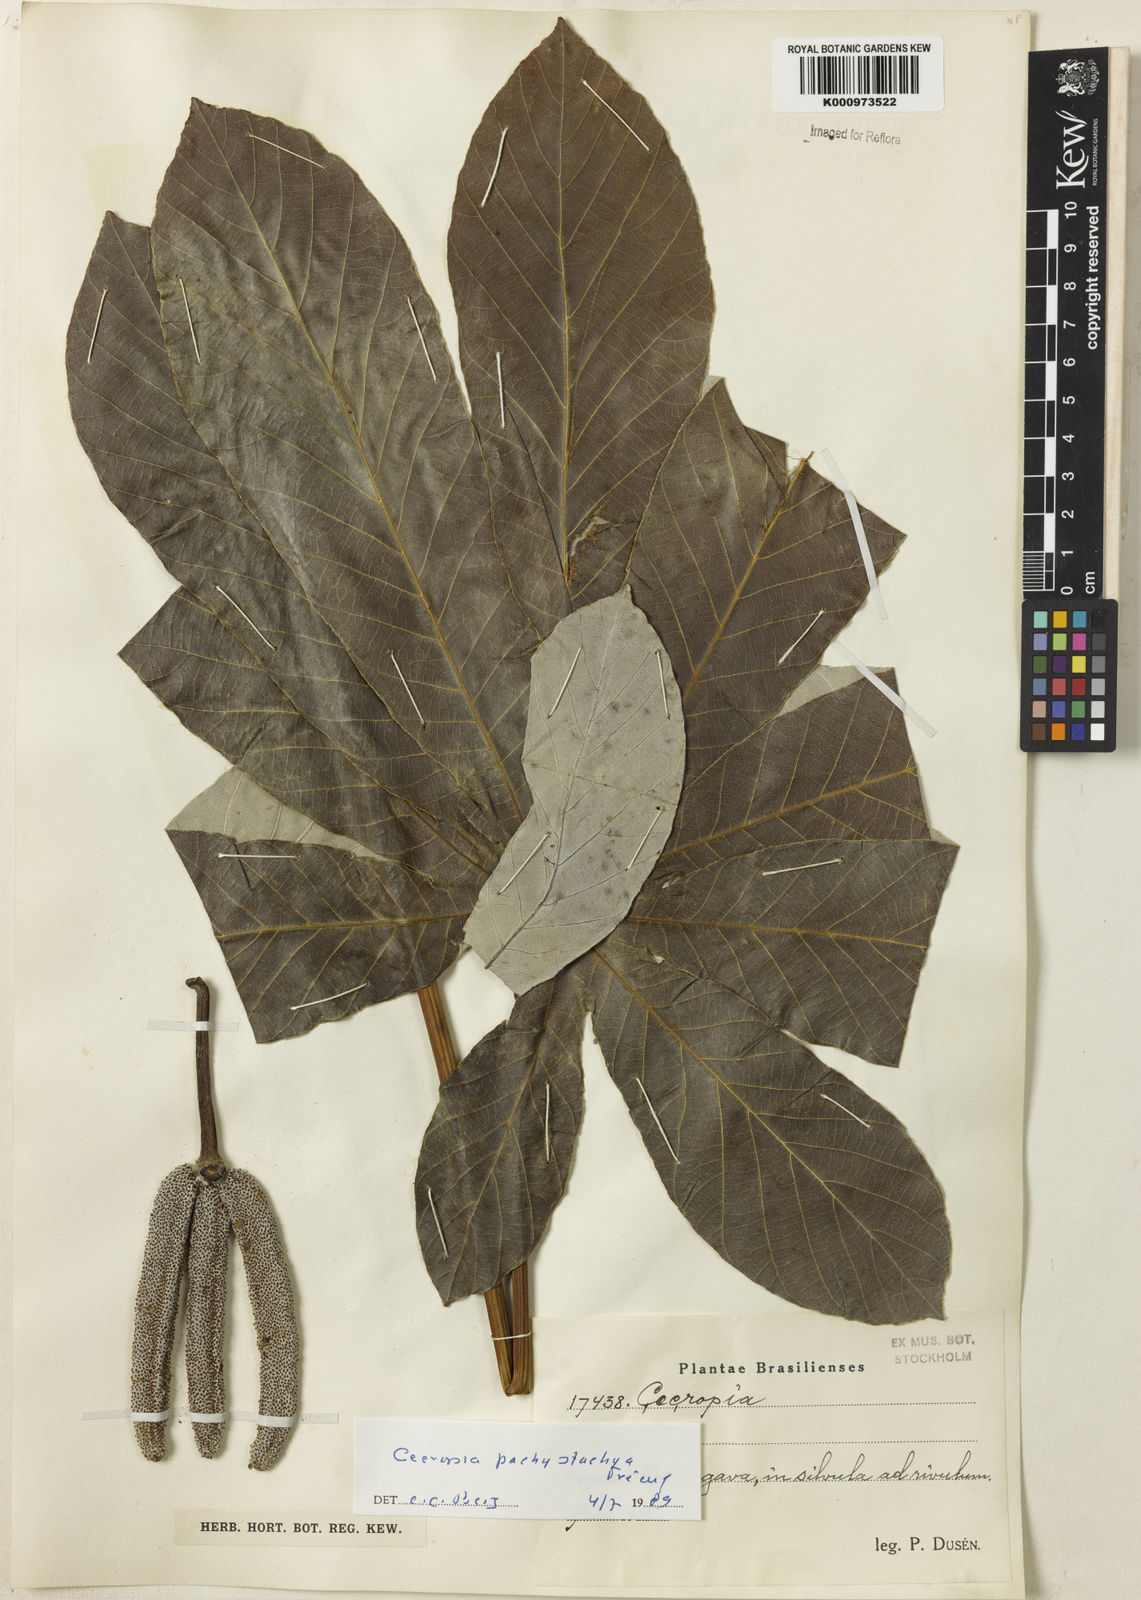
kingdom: Plantae
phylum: Tracheophyta
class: Magnoliopsida
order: Rosales
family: Urticaceae
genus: Cecropia
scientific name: Cecropia
